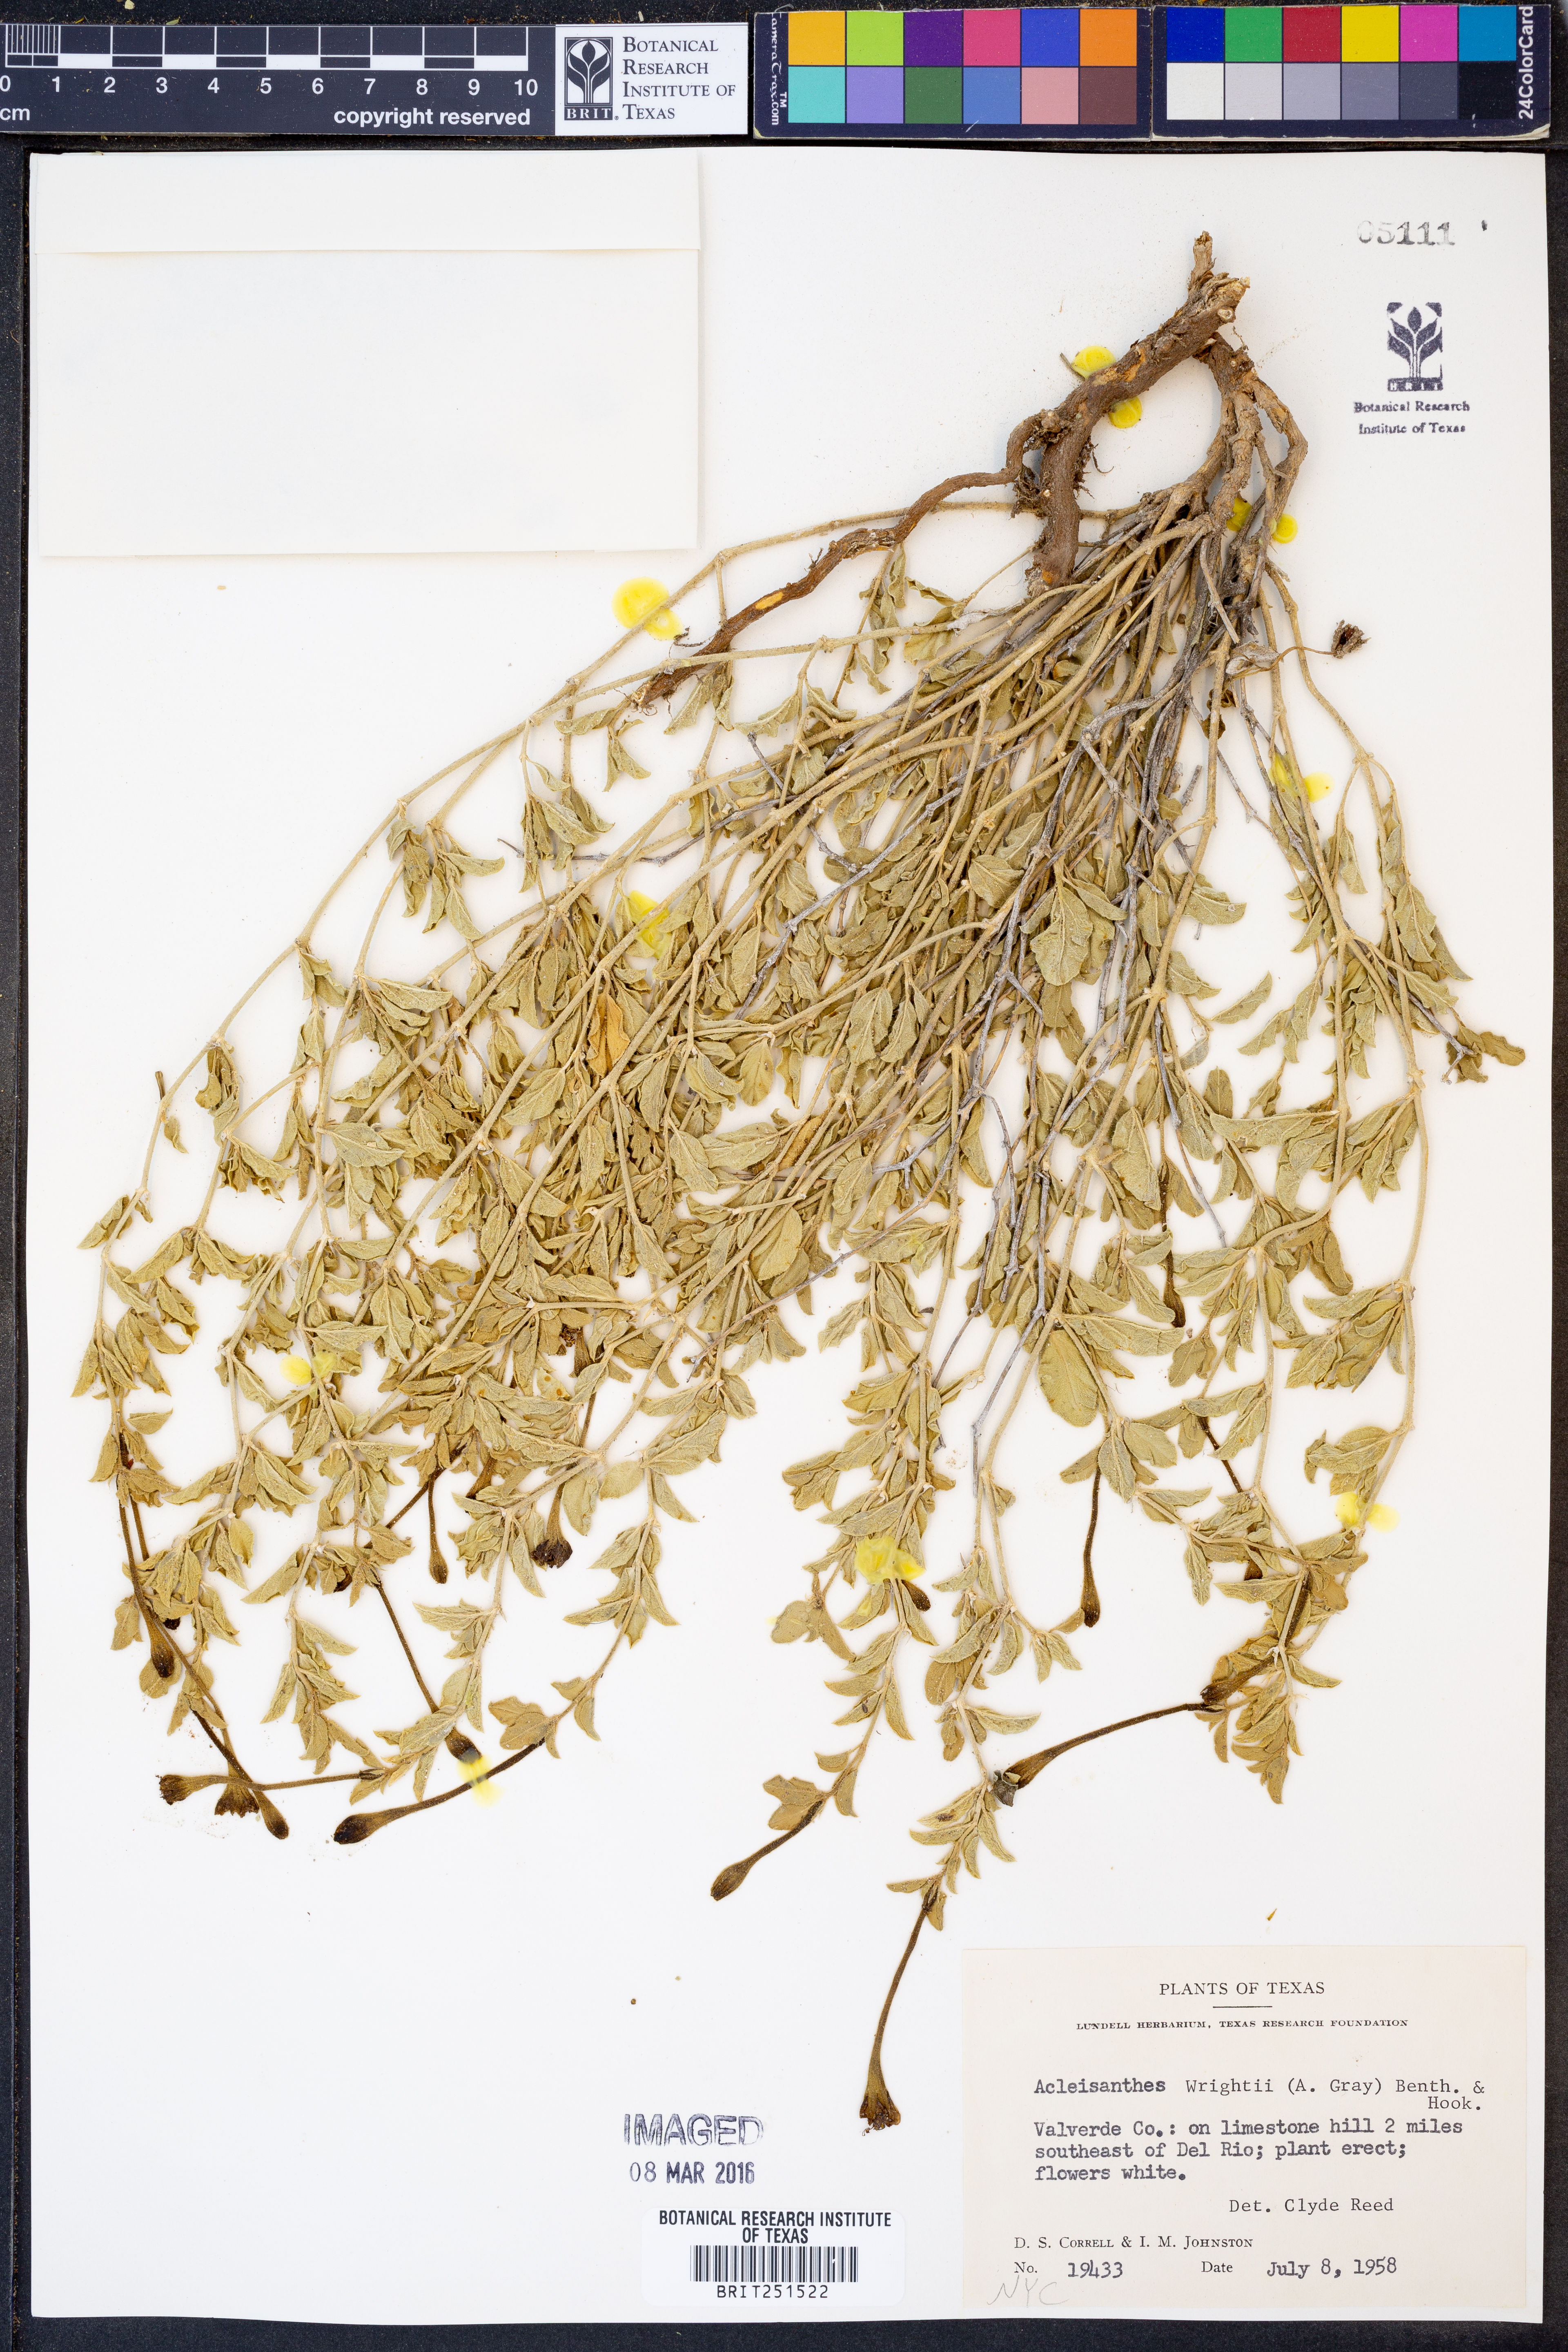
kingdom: Plantae
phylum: Tracheophyta
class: Magnoliopsida
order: Caryophyllales
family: Nyctaginaceae
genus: Acleisanthes
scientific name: Acleisanthes wrightii
